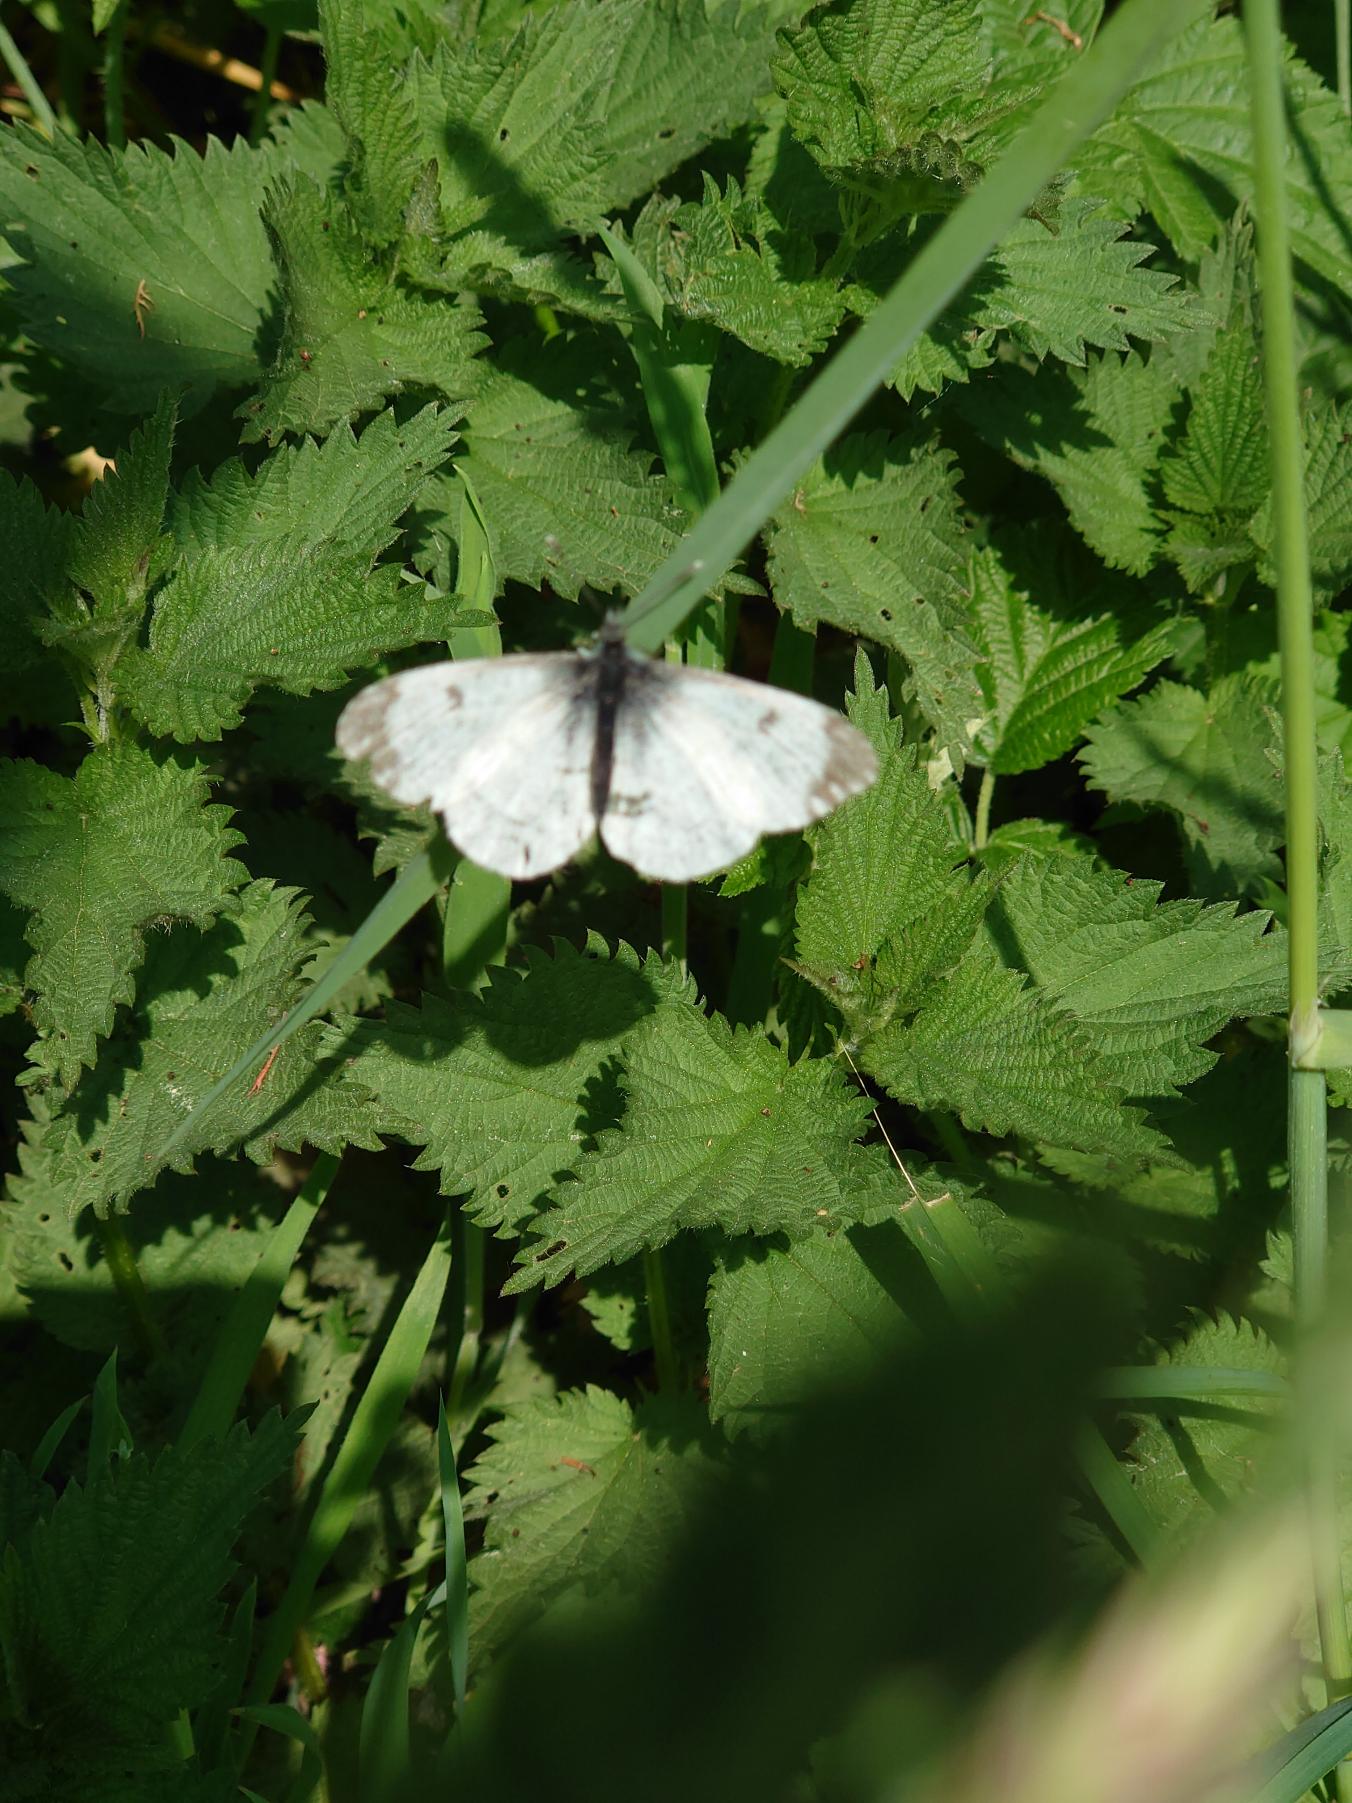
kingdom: Animalia
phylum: Arthropoda
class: Insecta
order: Lepidoptera
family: Pieridae
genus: Anthocharis
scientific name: Anthocharis cardamines
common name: Aurora
